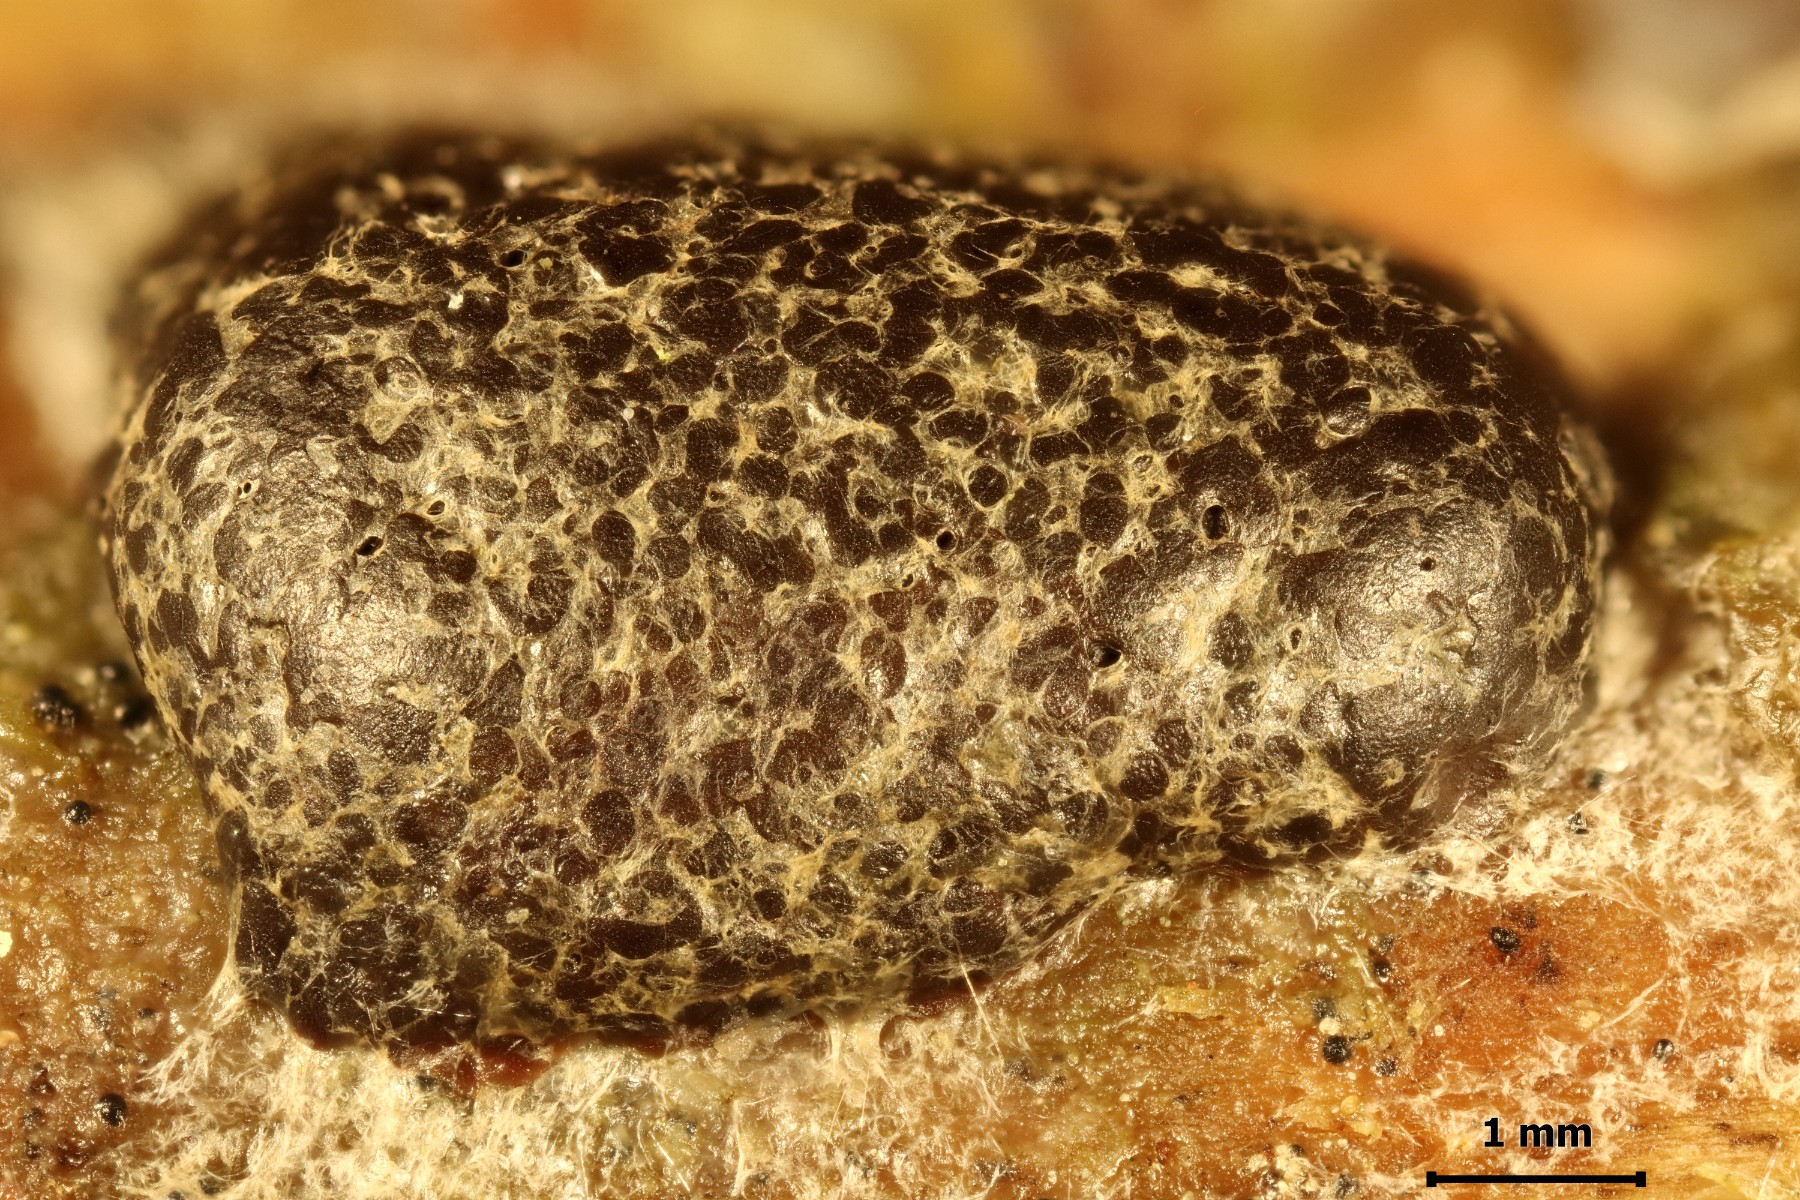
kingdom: Protozoa
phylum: Mycetozoa
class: Myxomycetes
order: Cribrariales
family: Tubiferaceae
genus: Licaethalium
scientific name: Licaethalium olivaceum
